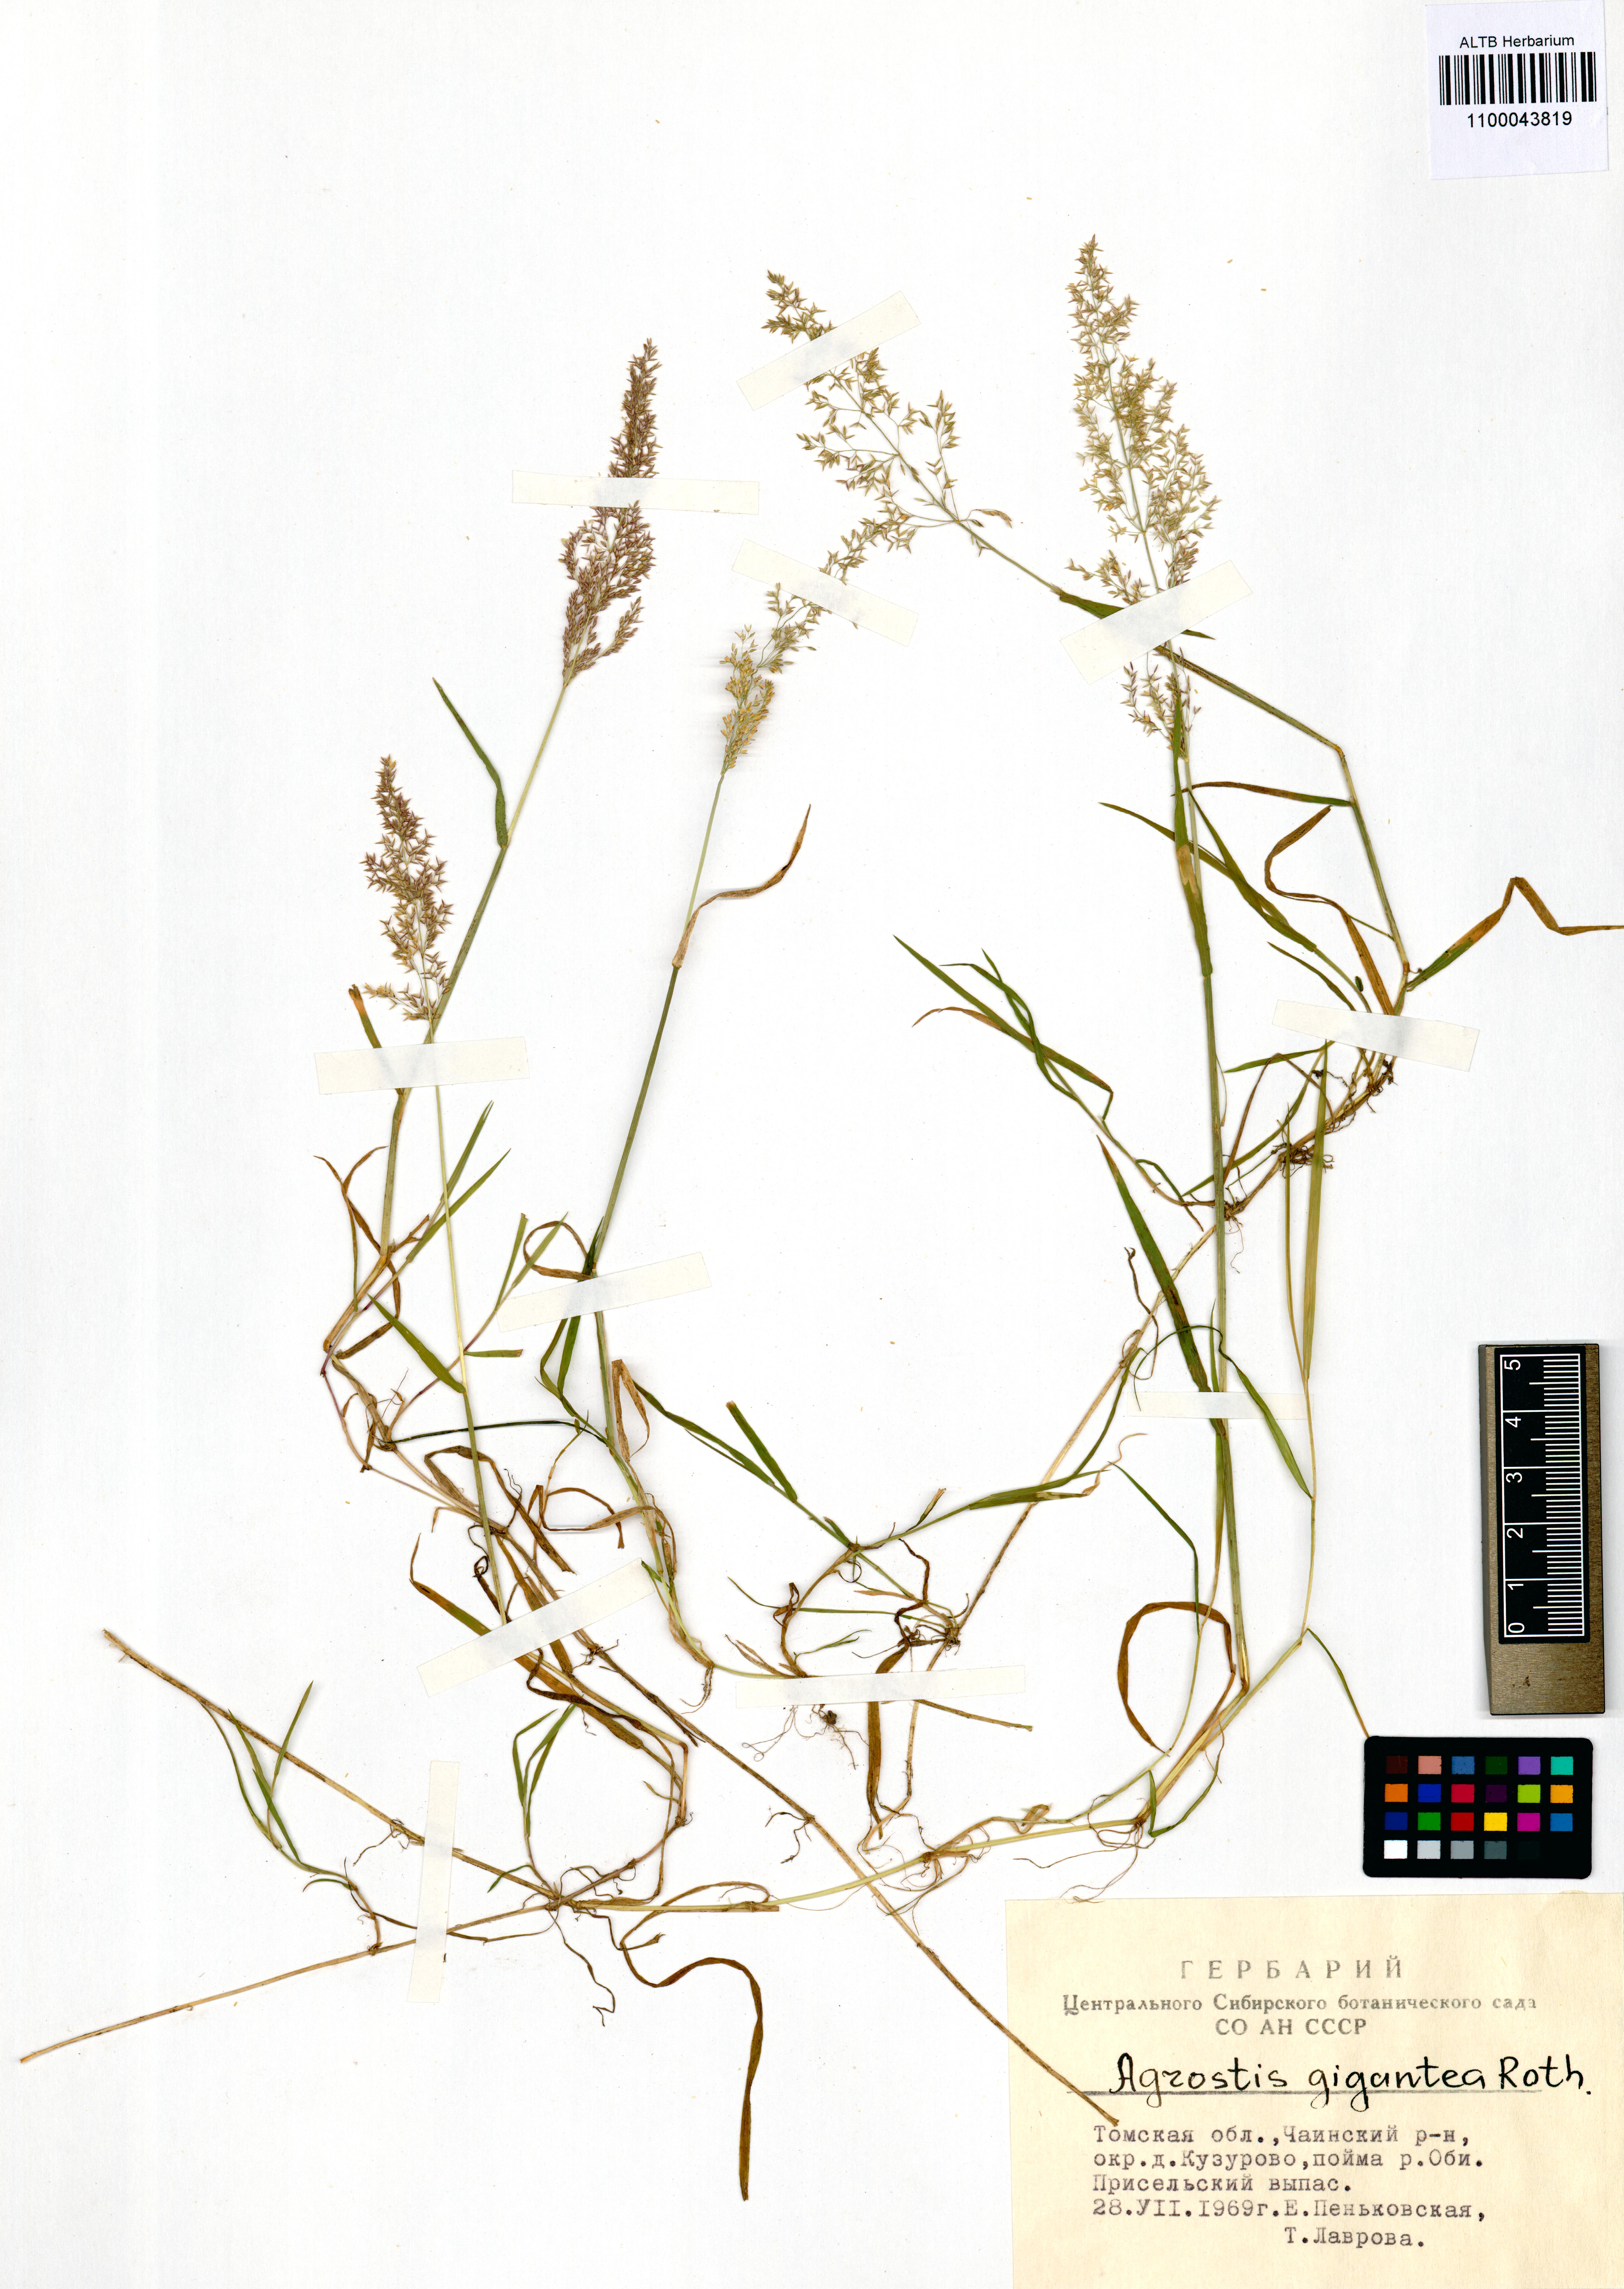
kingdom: Plantae
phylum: Tracheophyta
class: Liliopsida
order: Poales
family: Poaceae
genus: Agrostis
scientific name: Agrostis gigantea
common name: Black bent
